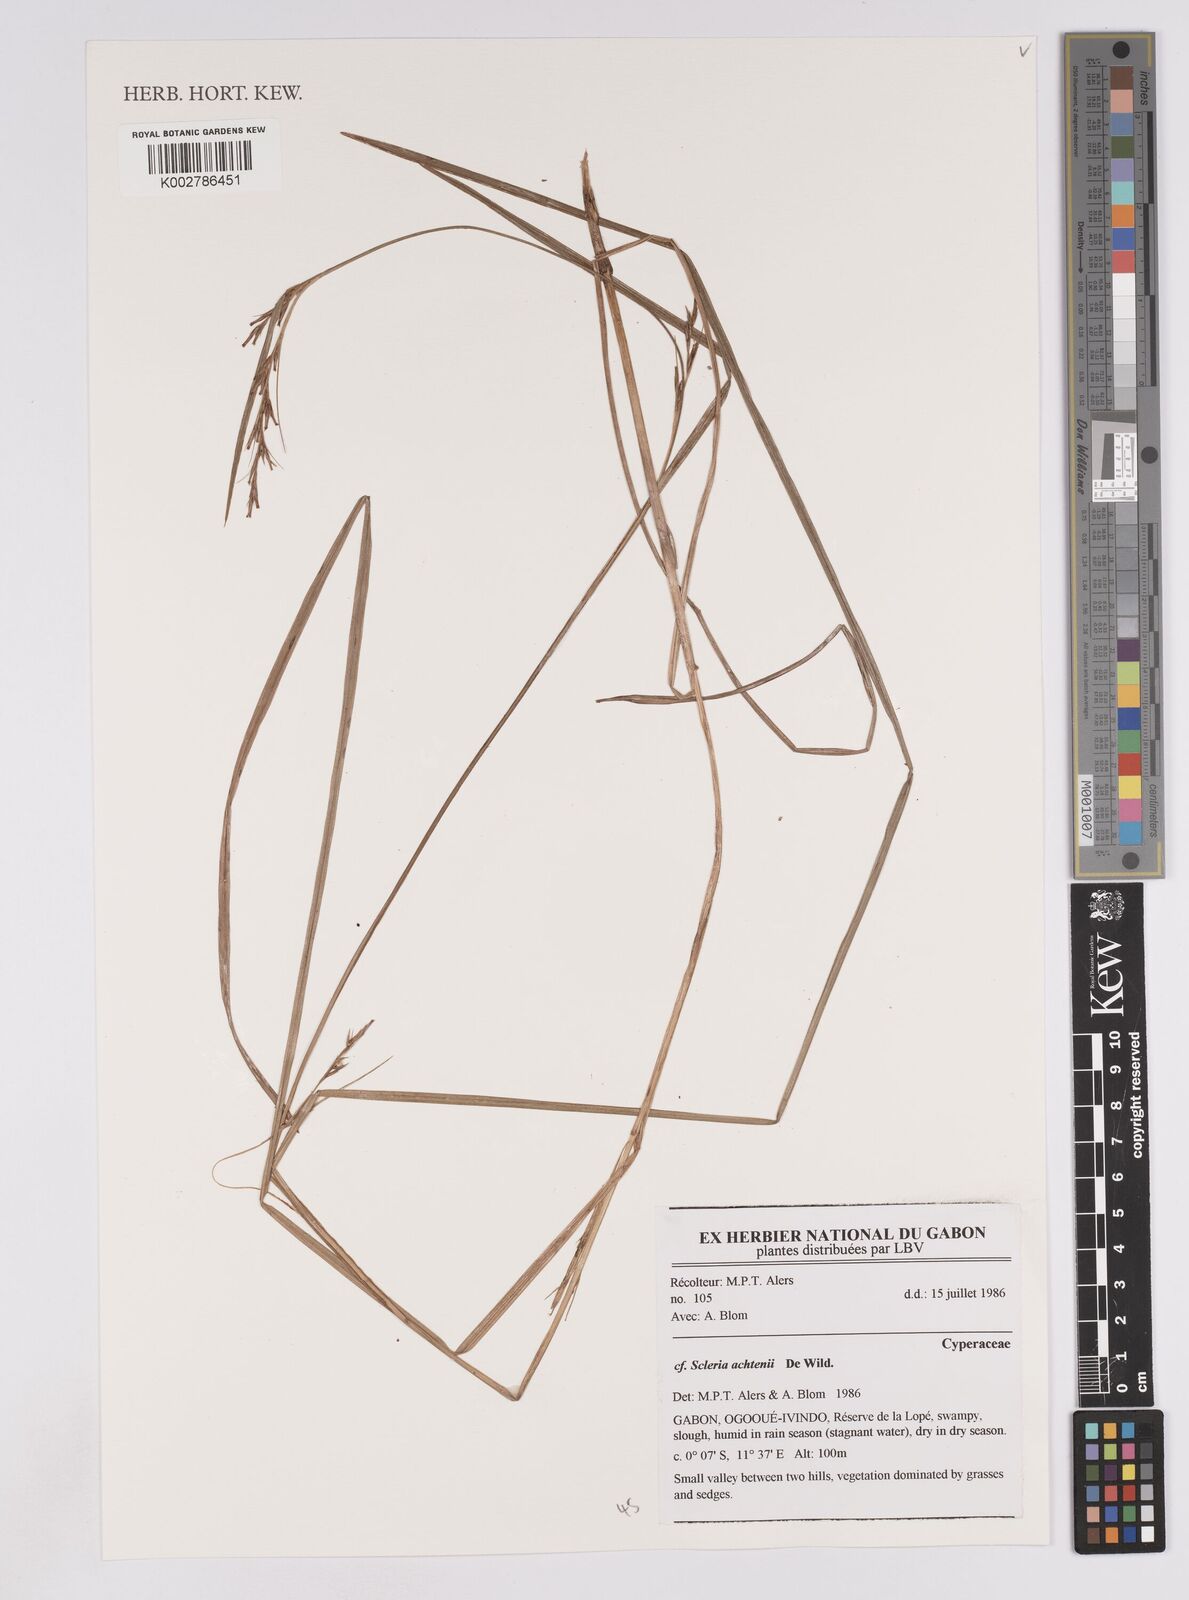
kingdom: Plantae
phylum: Tracheophyta
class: Liliopsida
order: Poales
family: Cyperaceae
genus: Scleria
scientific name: Scleria achtenii
